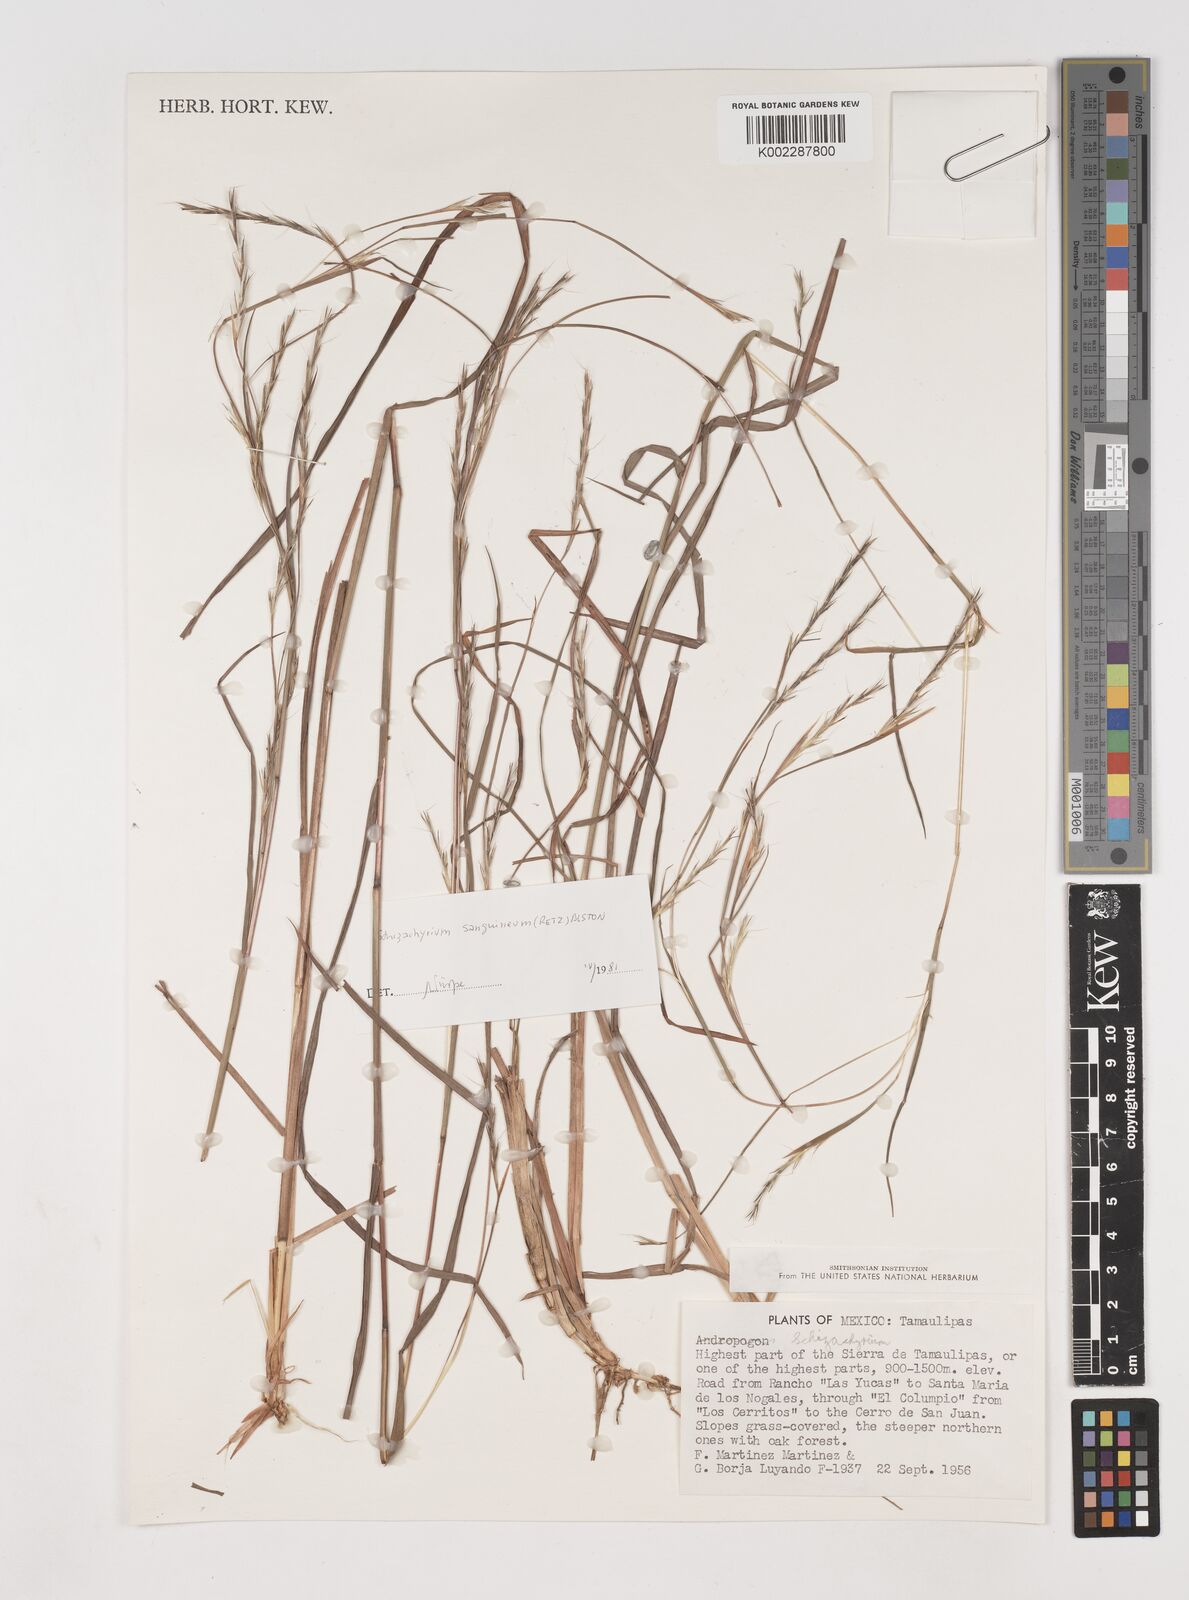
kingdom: Plantae
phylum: Tracheophyta
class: Liliopsida
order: Poales
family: Poaceae
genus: Schizachyrium
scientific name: Schizachyrium sanguineum
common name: Crimson bluestem
